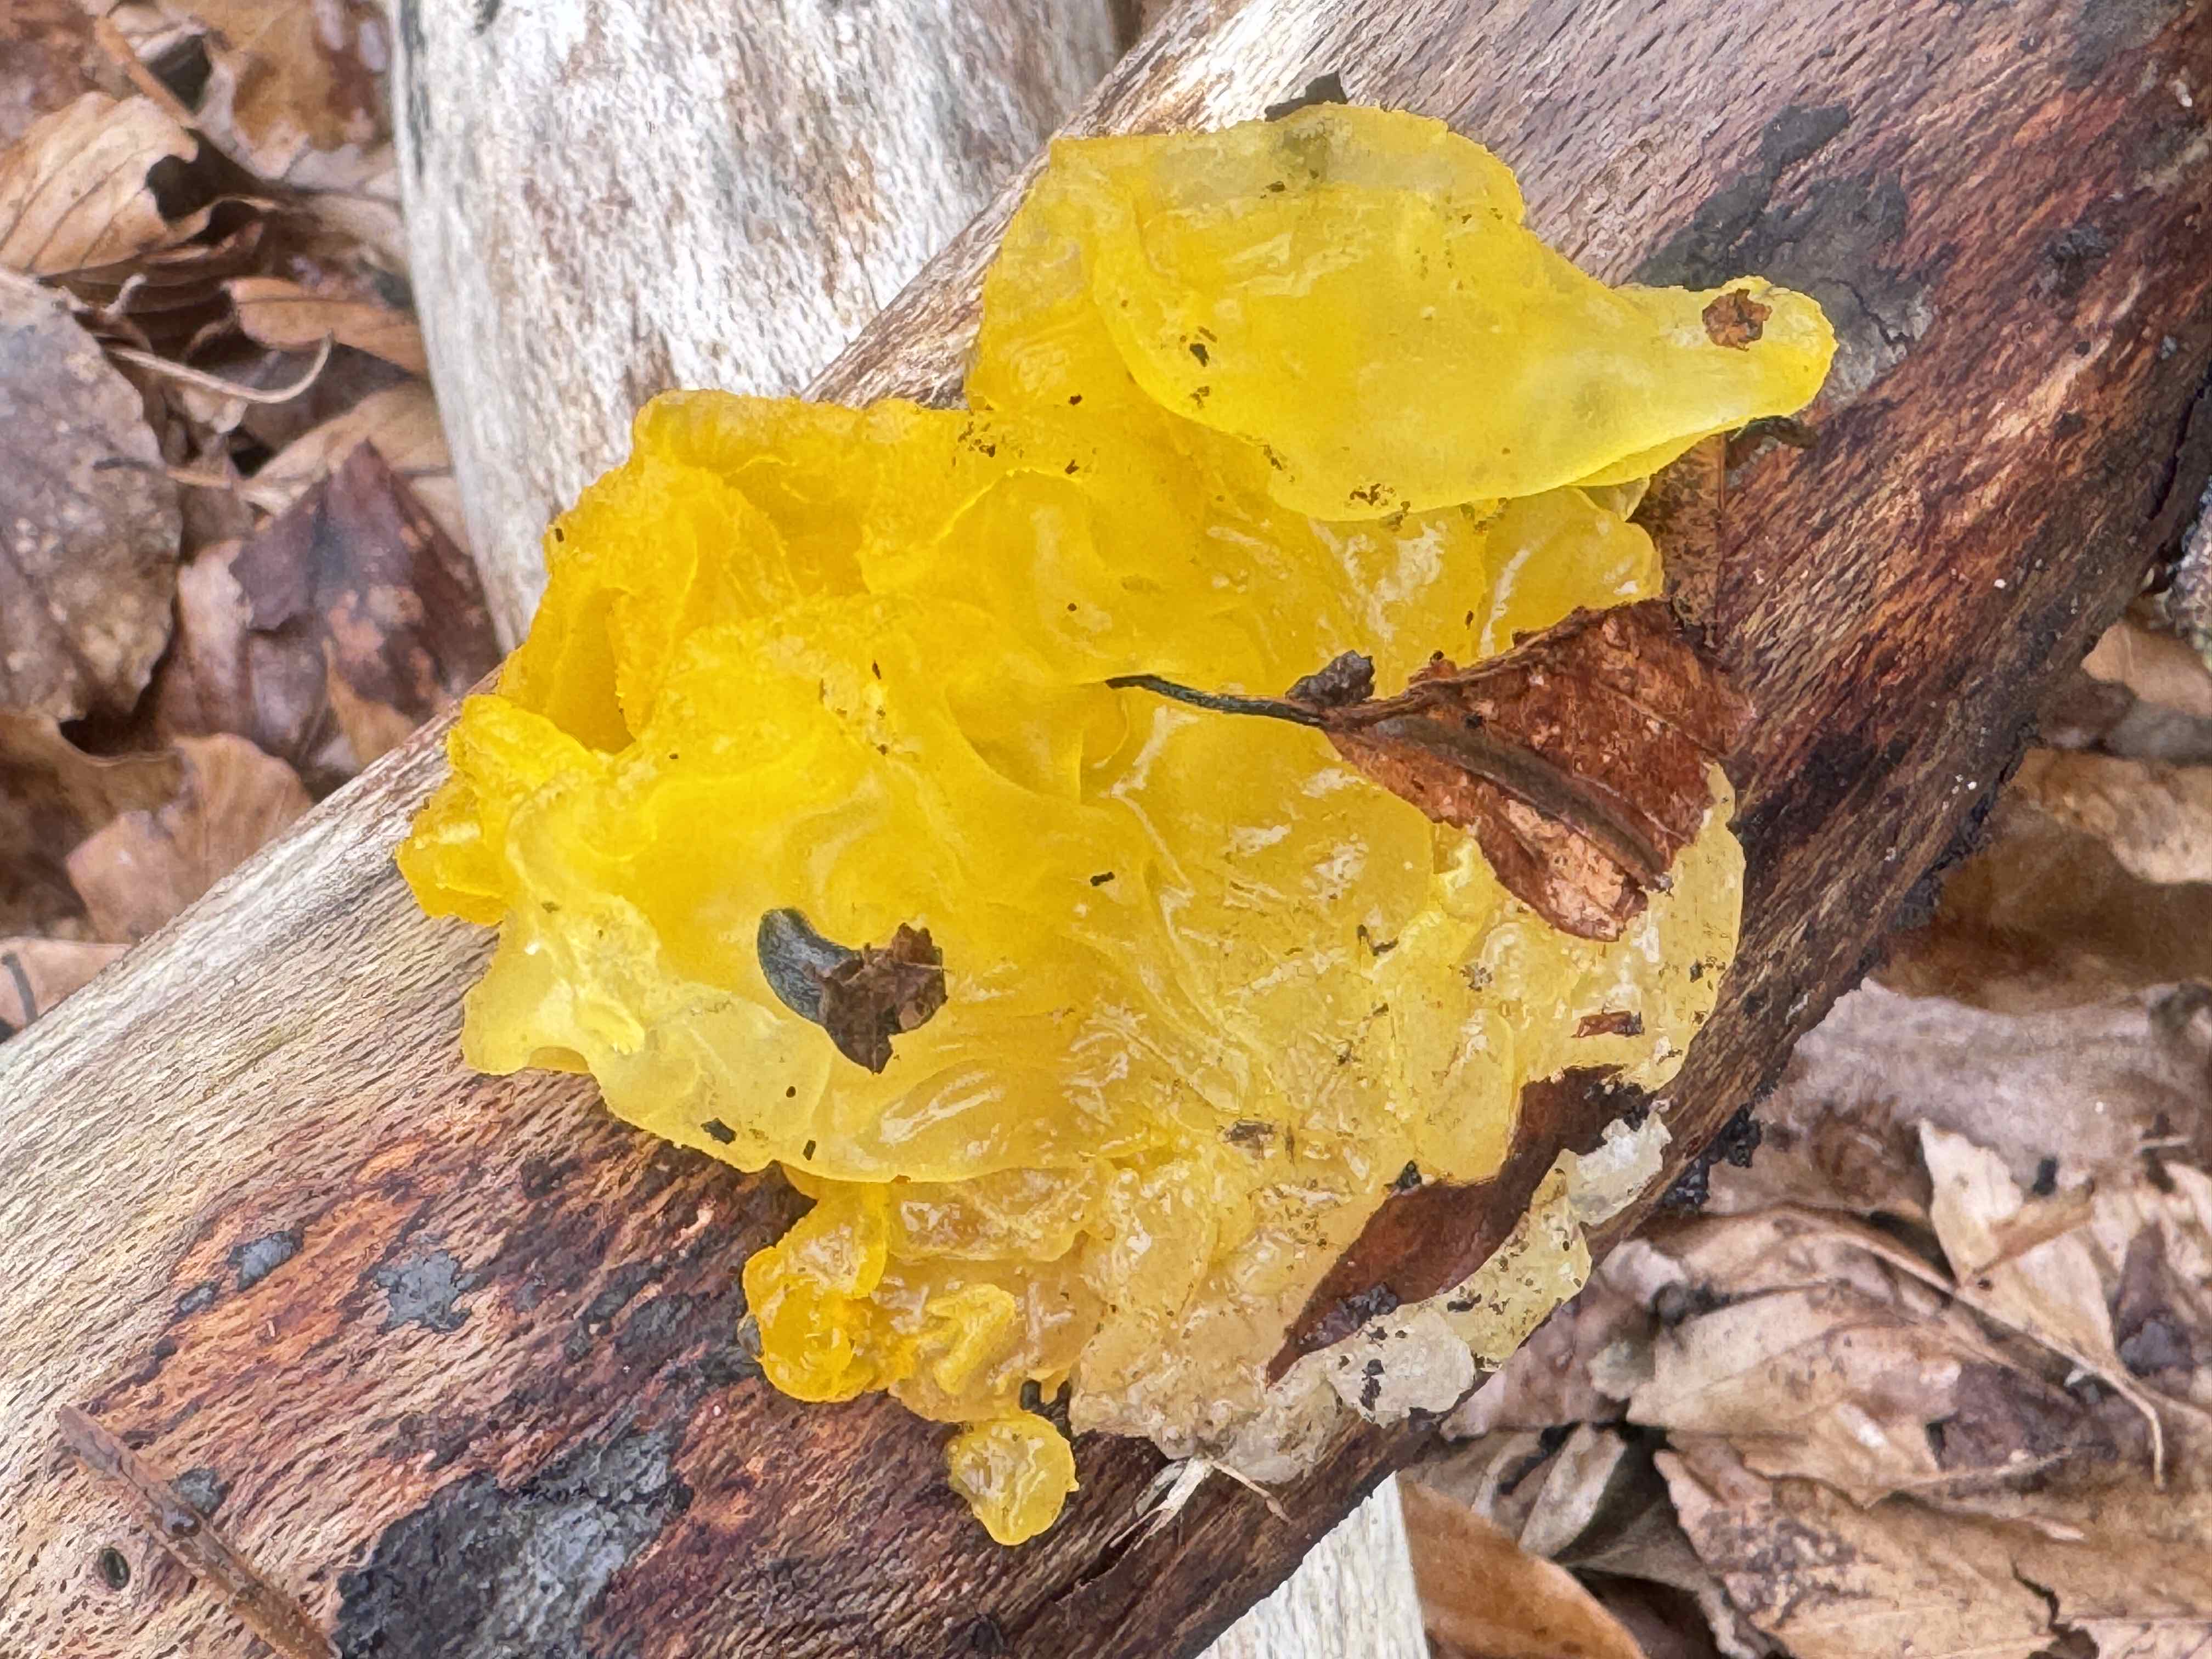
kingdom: Fungi
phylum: Basidiomycota
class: Tremellomycetes
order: Tremellales
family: Tremellaceae
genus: Tremella
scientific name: Tremella mesenterica
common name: gul bævresvamp
